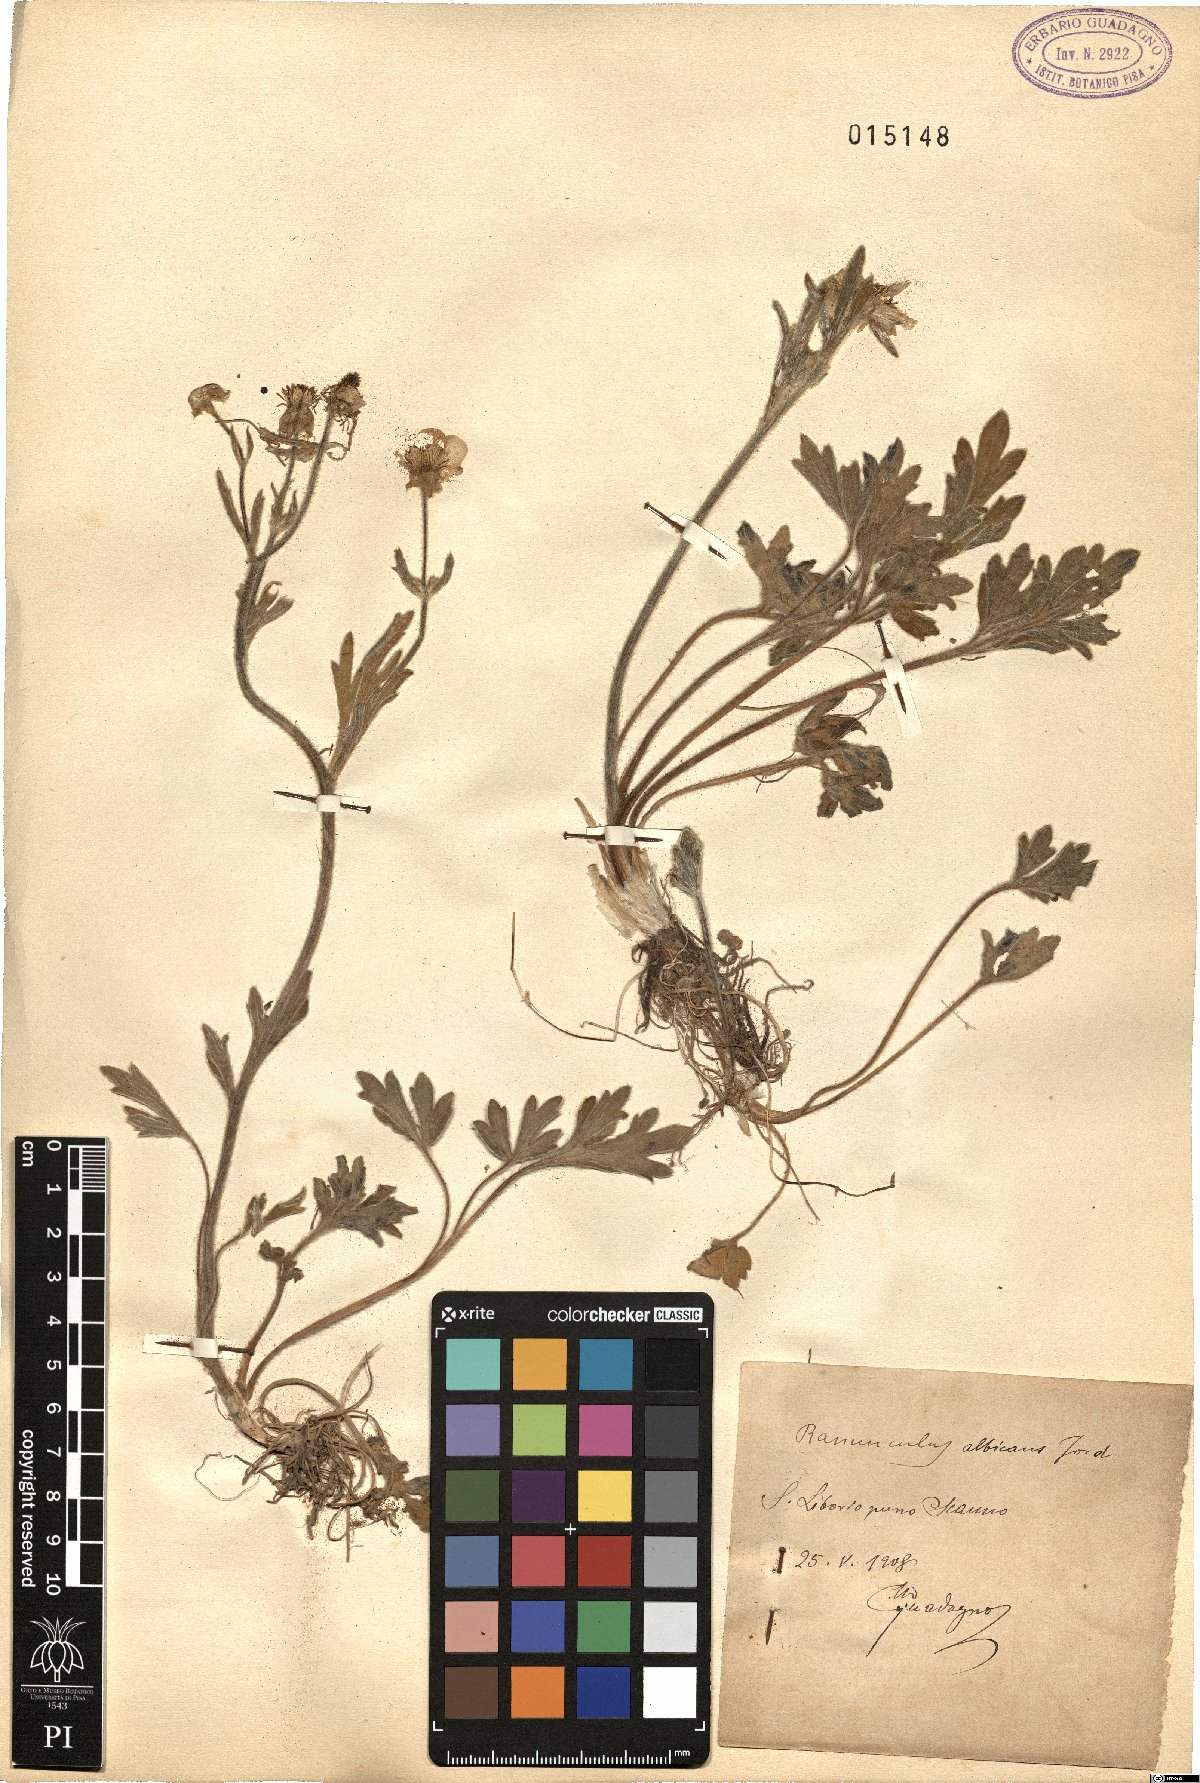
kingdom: Plantae
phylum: Tracheophyta
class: Magnoliopsida
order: Ranunculales
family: Ranunculaceae
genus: Ranunculus
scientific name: Ranunculus monspeliacus
